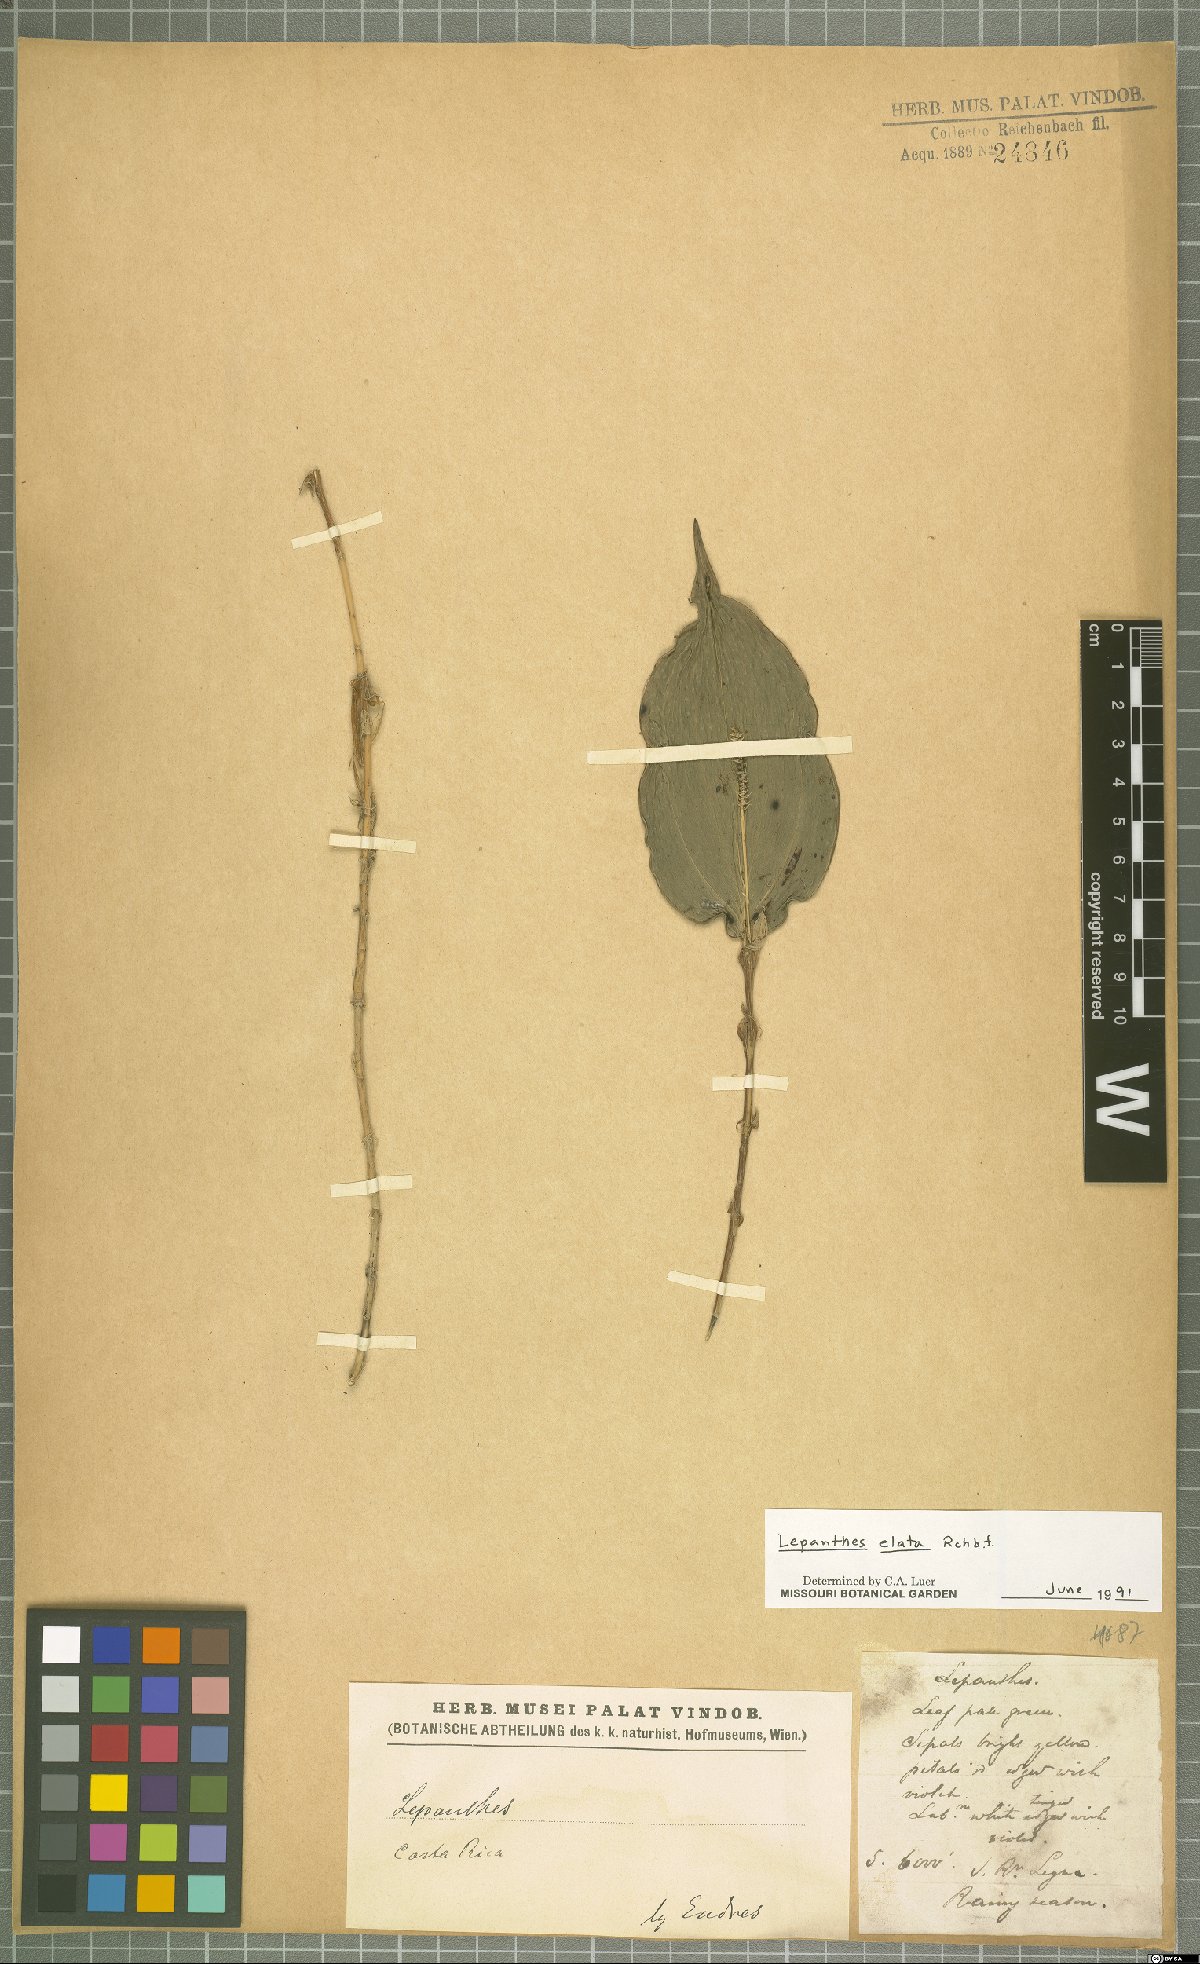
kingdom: Plantae
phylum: Tracheophyta
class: Liliopsida
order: Asparagales
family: Orchidaceae
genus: Lepanthes
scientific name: Lepanthes elata
